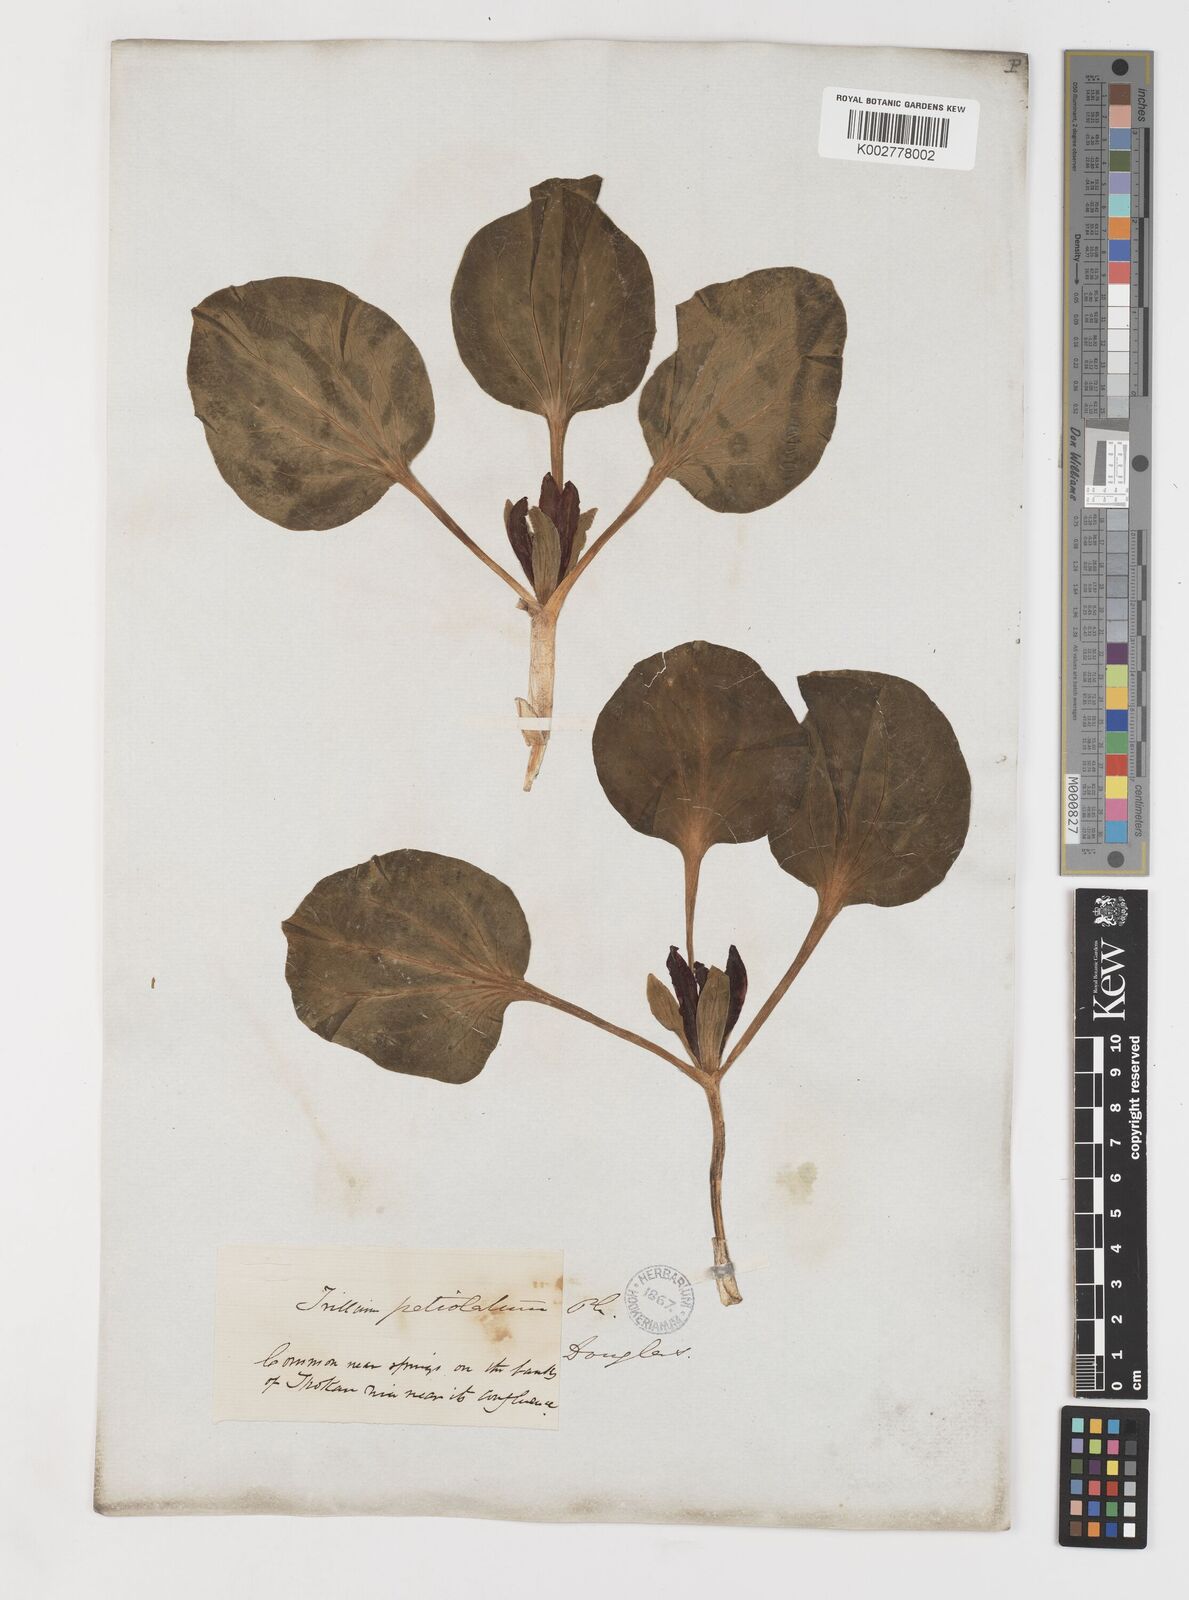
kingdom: Plantae
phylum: Tracheophyta
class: Liliopsida
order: Liliales
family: Melanthiaceae
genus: Trillium
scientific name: Trillium petiolatum
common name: Idaho trillium
